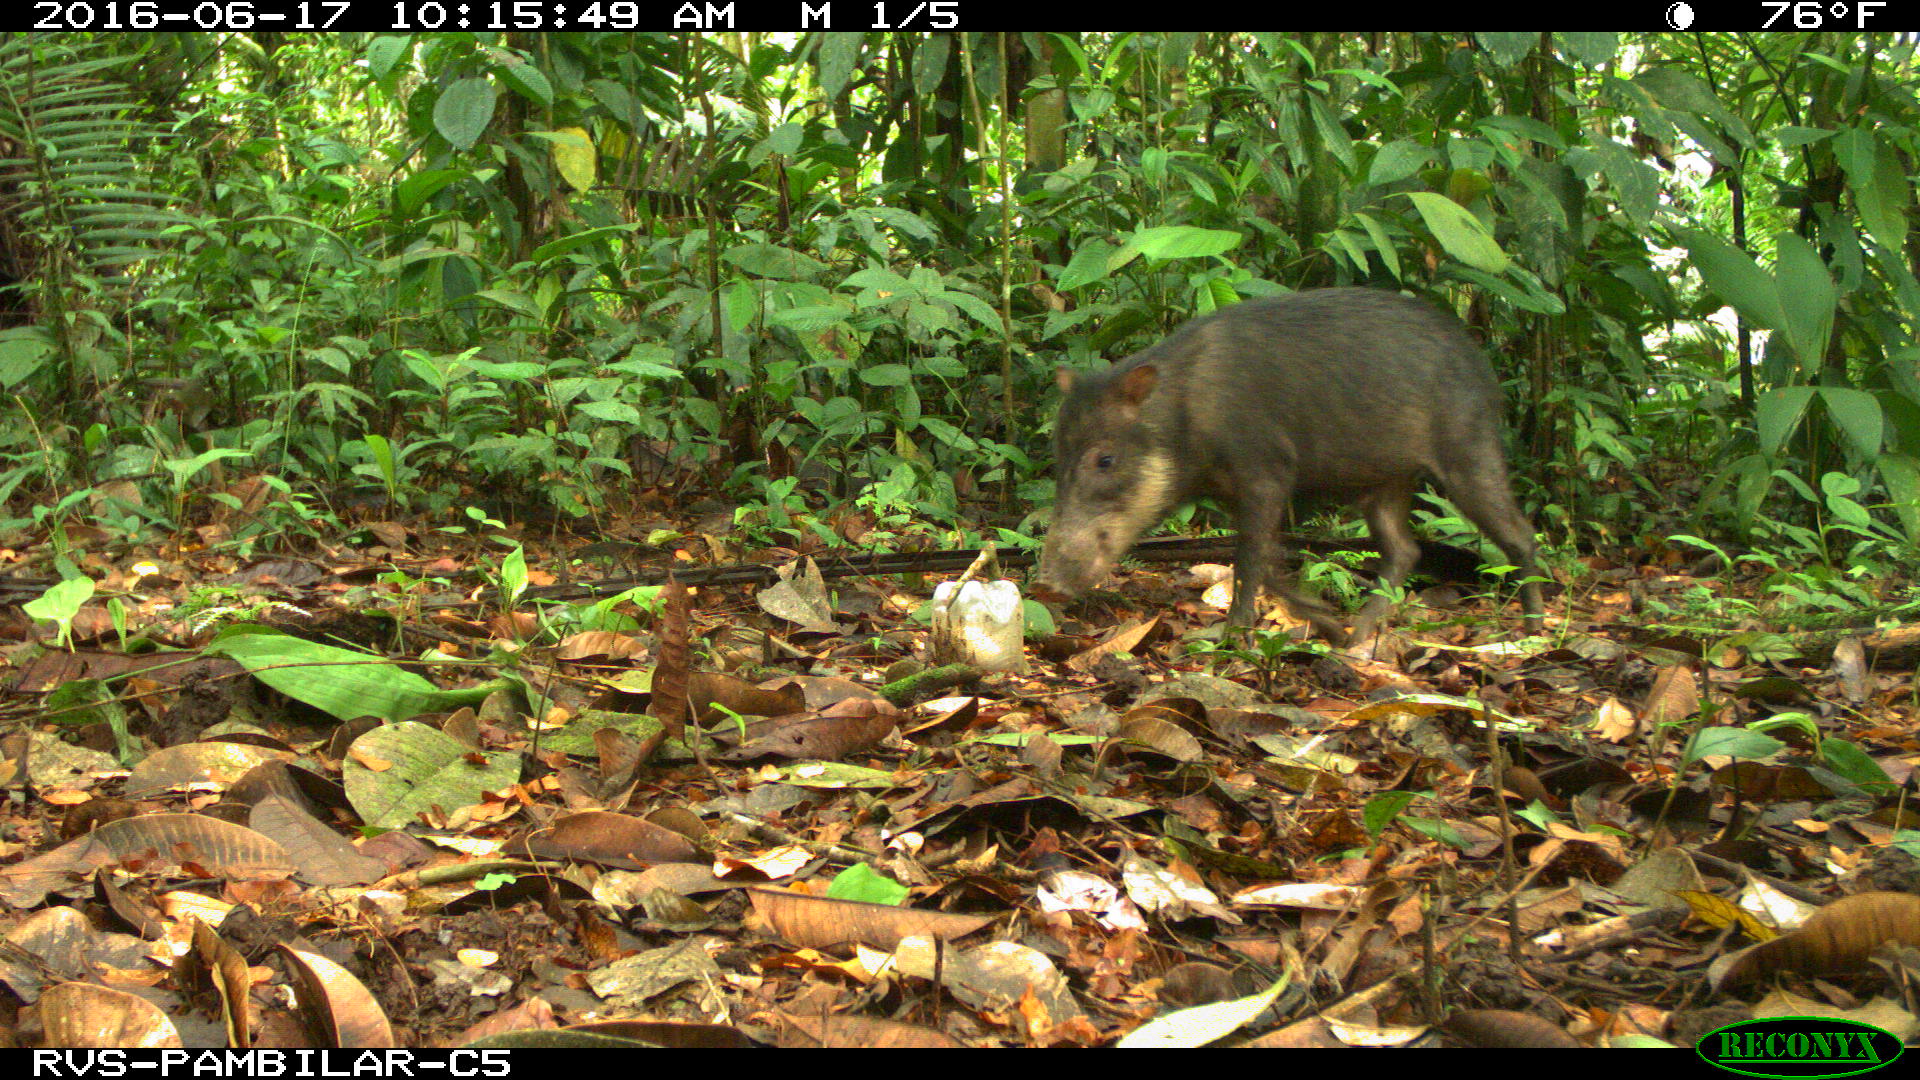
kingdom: Animalia
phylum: Chordata
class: Mammalia
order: Artiodactyla
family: Tayassuidae
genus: Tayassu
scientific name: Tayassu pecari
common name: White-lipped peccary
